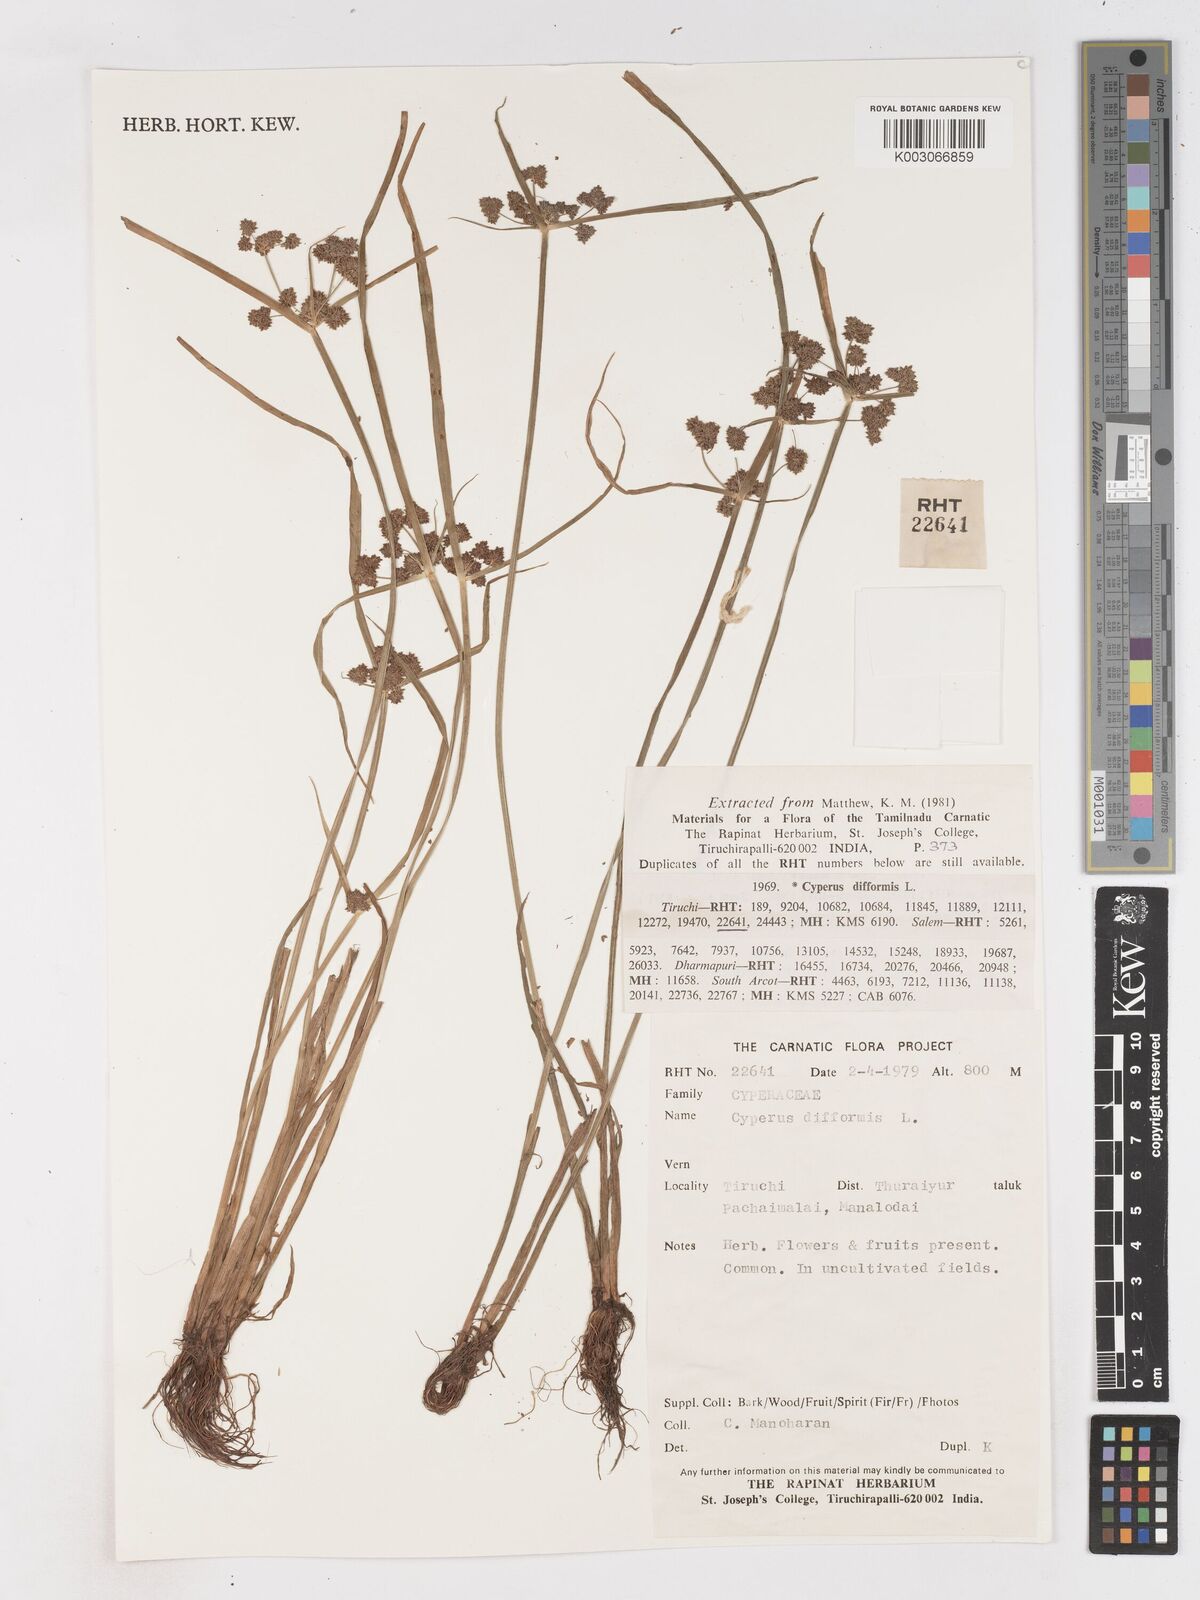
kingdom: Plantae
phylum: Tracheophyta
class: Liliopsida
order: Poales
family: Cyperaceae
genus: Cyperus
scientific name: Cyperus difformis
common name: Variable flatsedge
